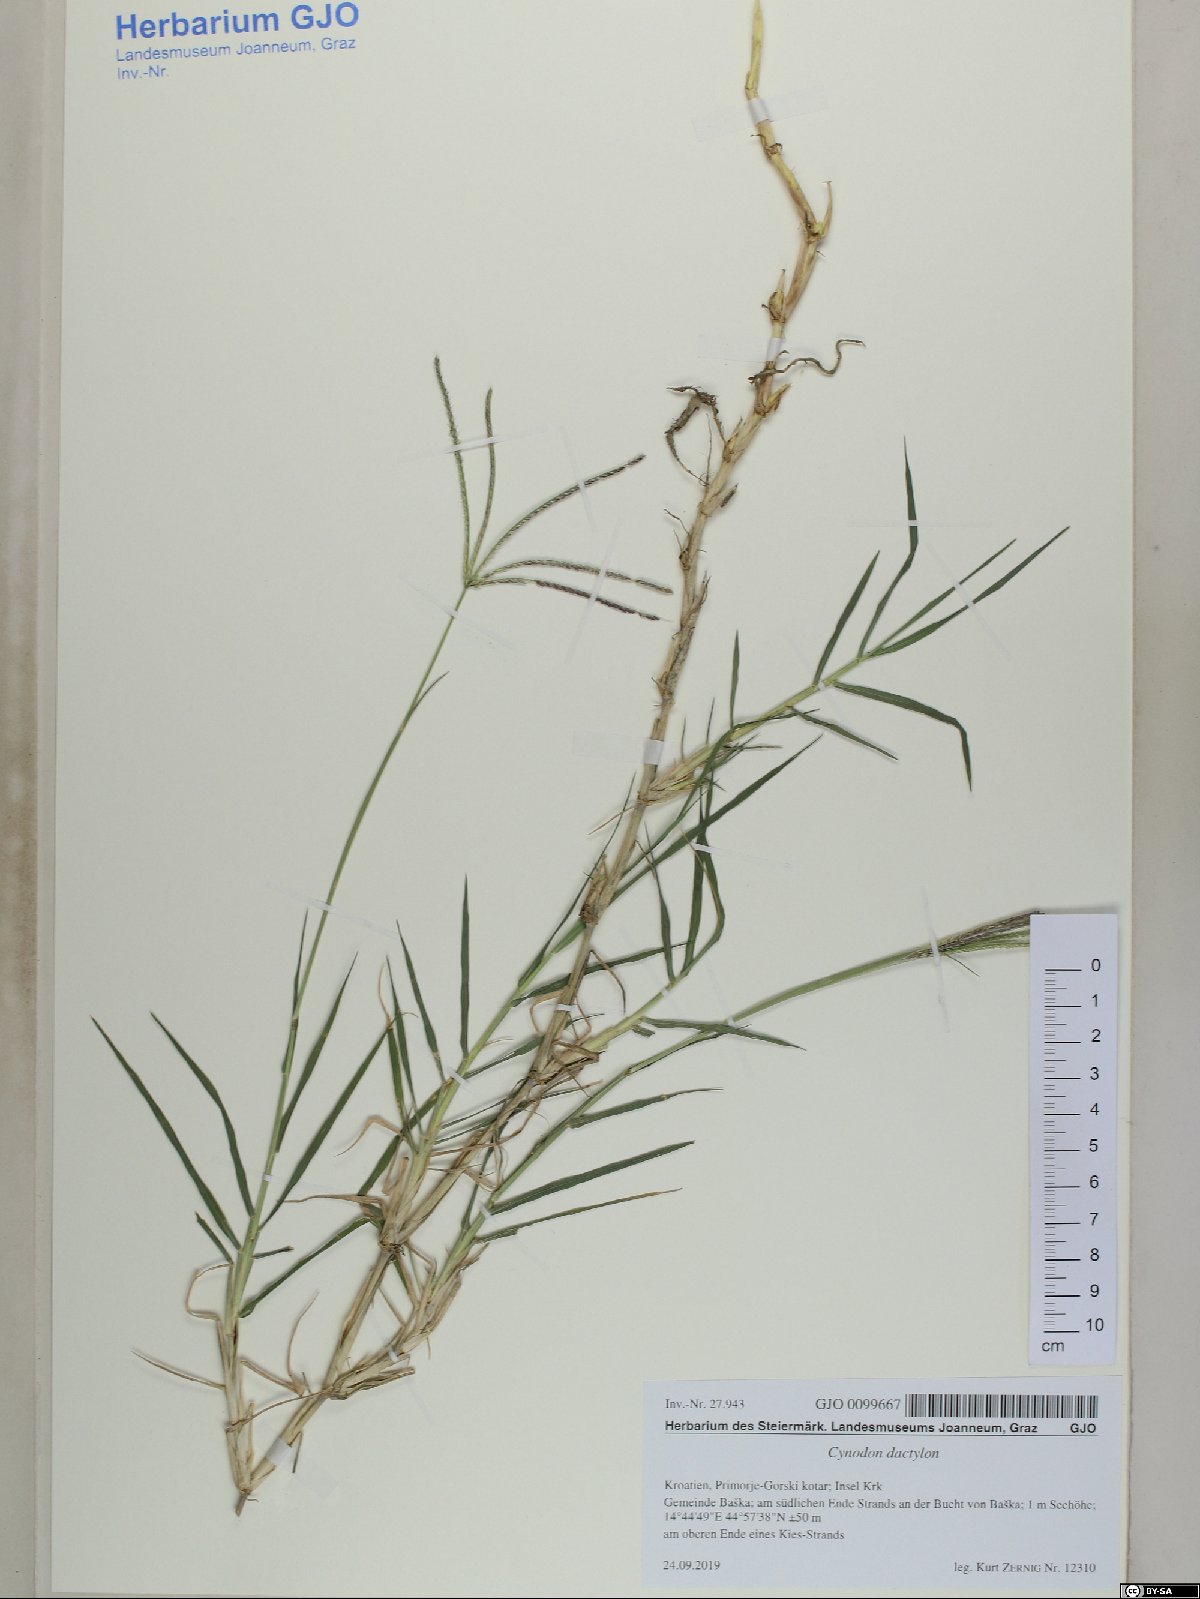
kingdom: Plantae
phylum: Tracheophyta
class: Liliopsida
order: Poales
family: Poaceae
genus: Cynodon
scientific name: Cynodon dactylon
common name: Bermuda grass
